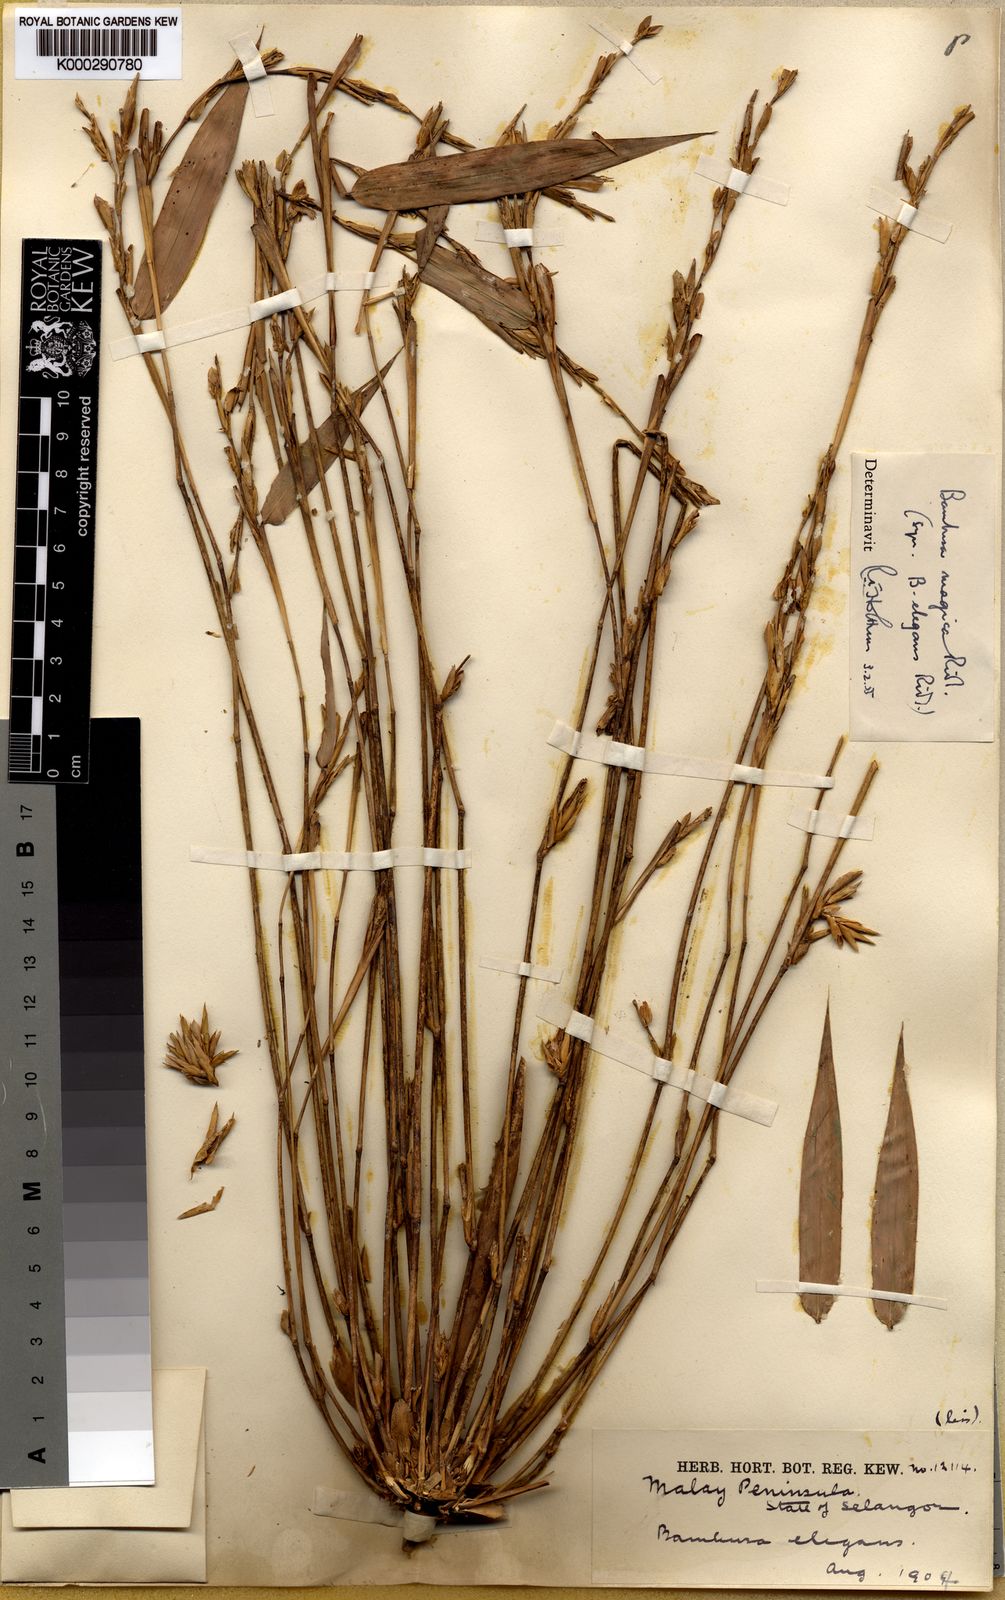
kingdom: Plantae
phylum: Tracheophyta
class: Liliopsida
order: Poales
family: Poaceae
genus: Holttumochloa
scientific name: Holttumochloa magica
